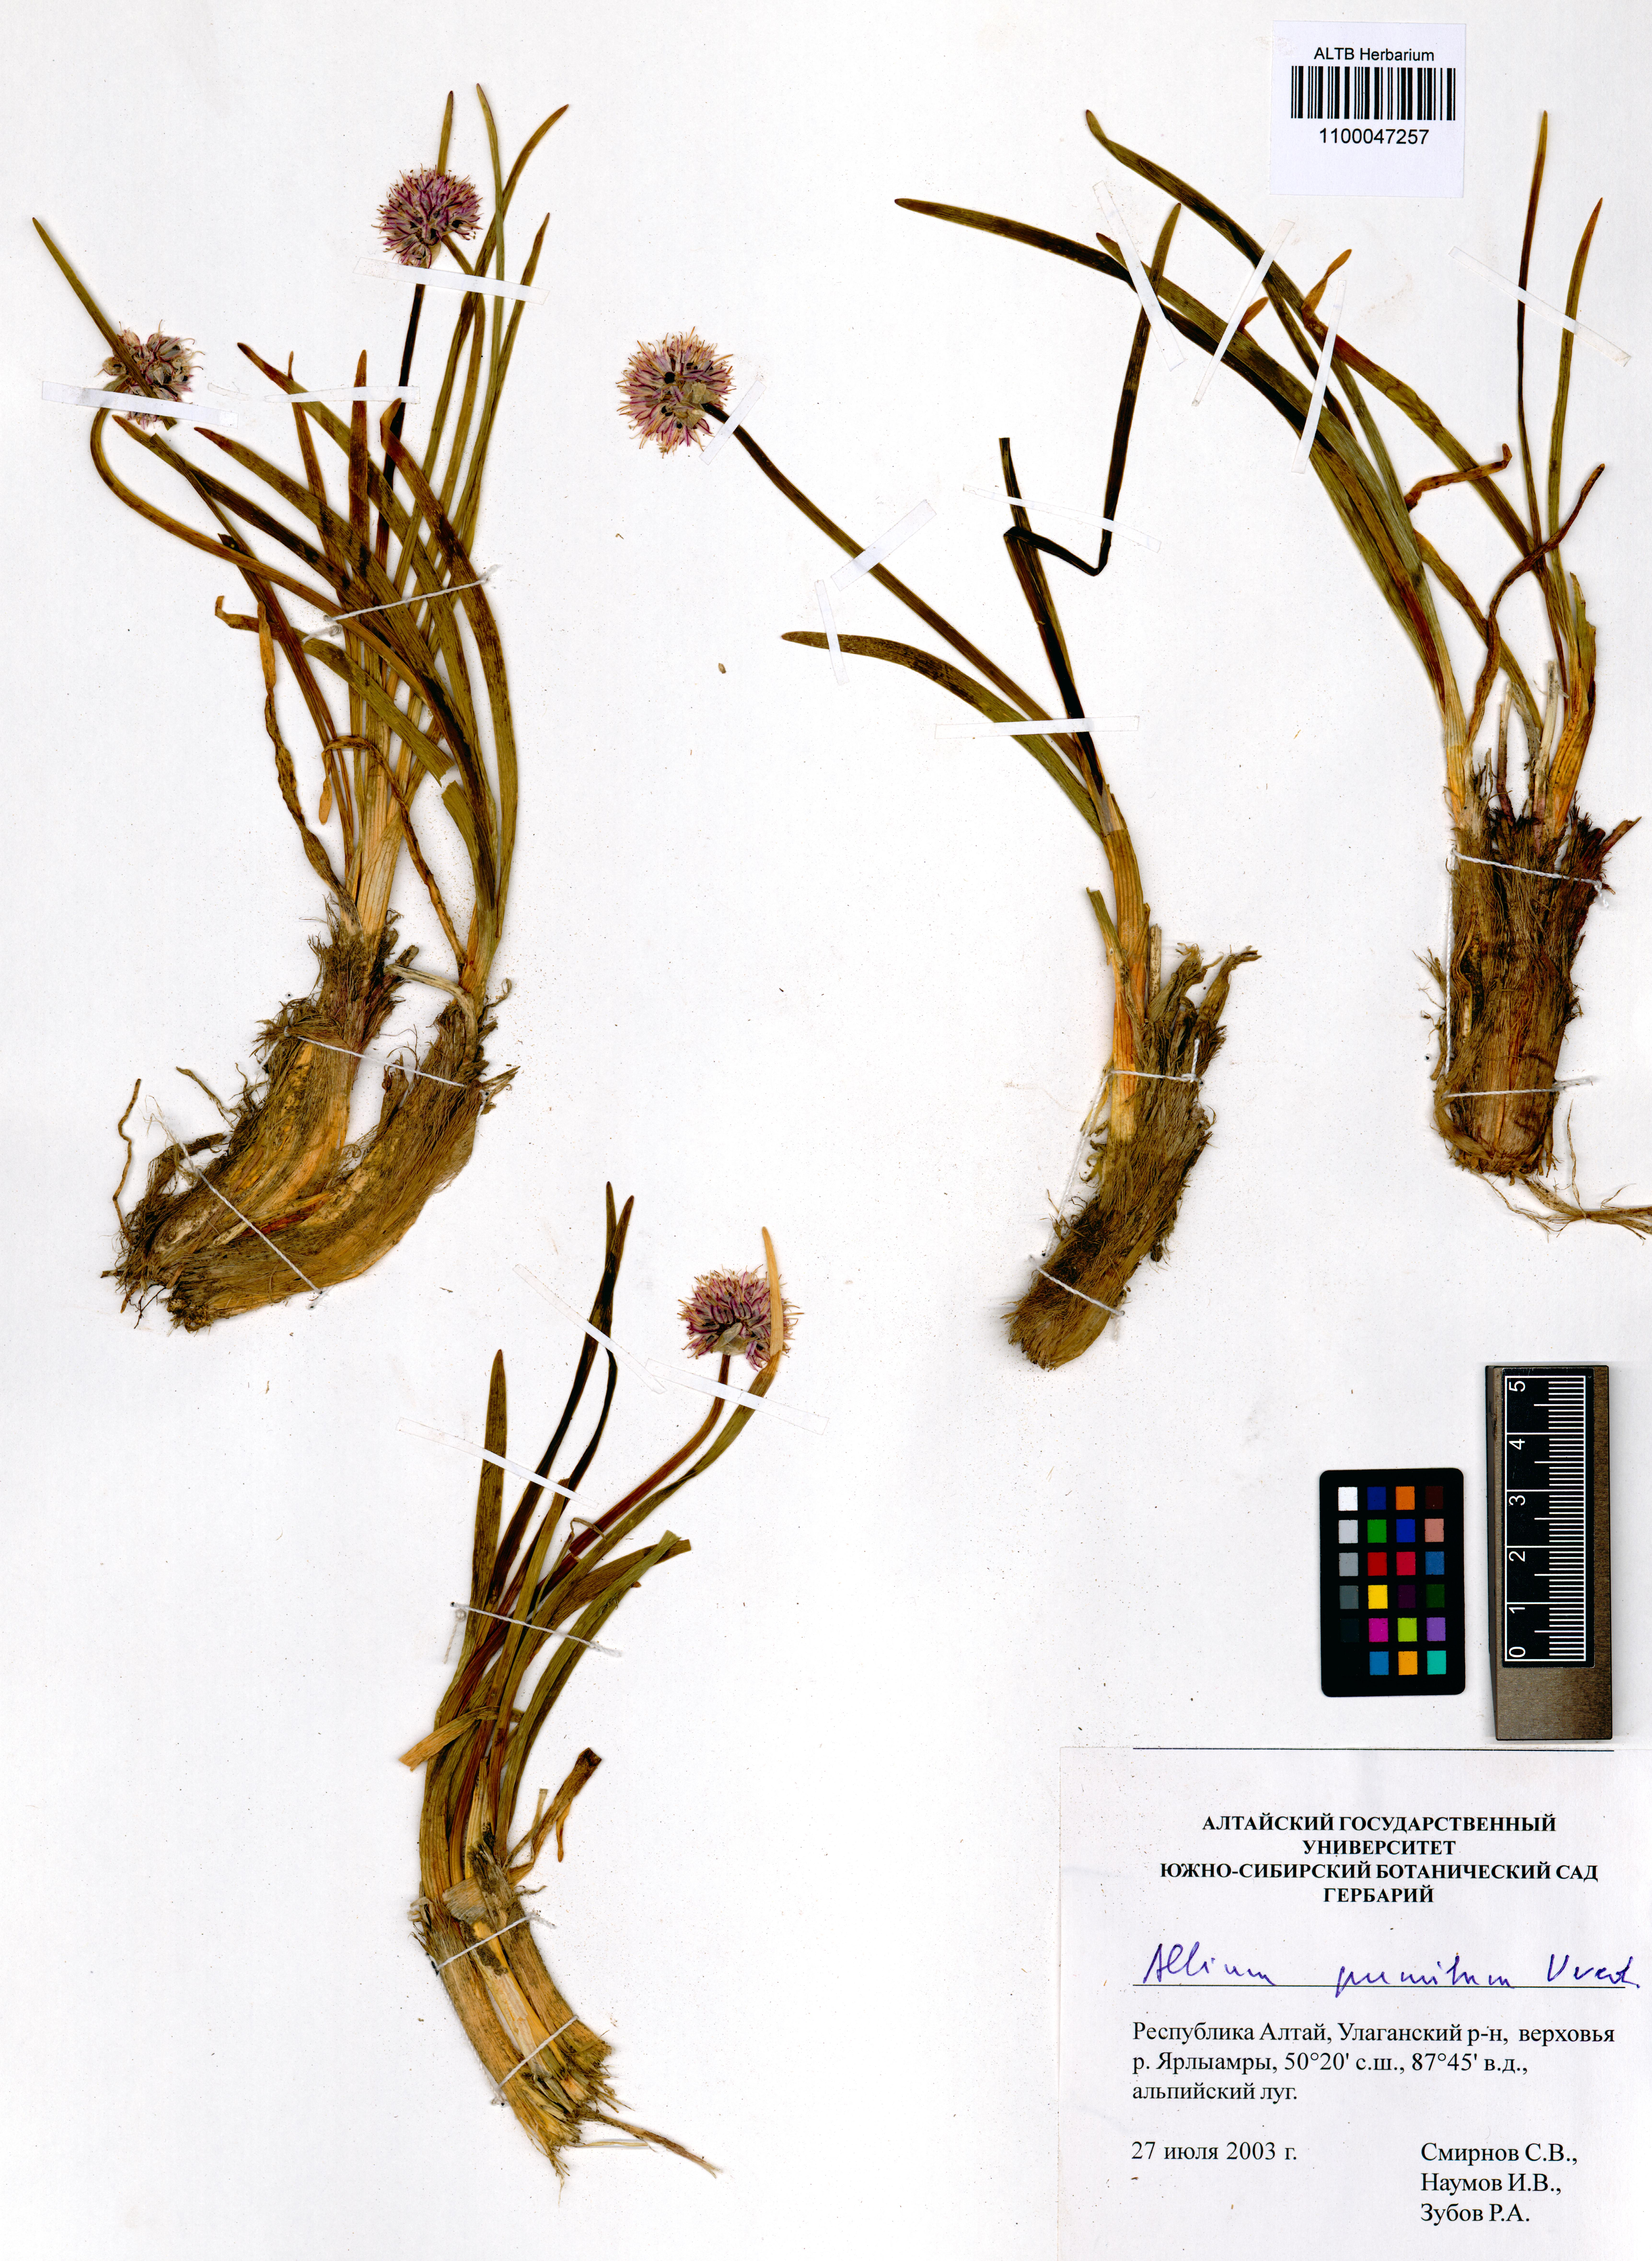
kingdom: Plantae
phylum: Tracheophyta
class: Liliopsida
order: Asparagales
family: Amaryllidaceae
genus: Allium
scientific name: Allium pumilum
